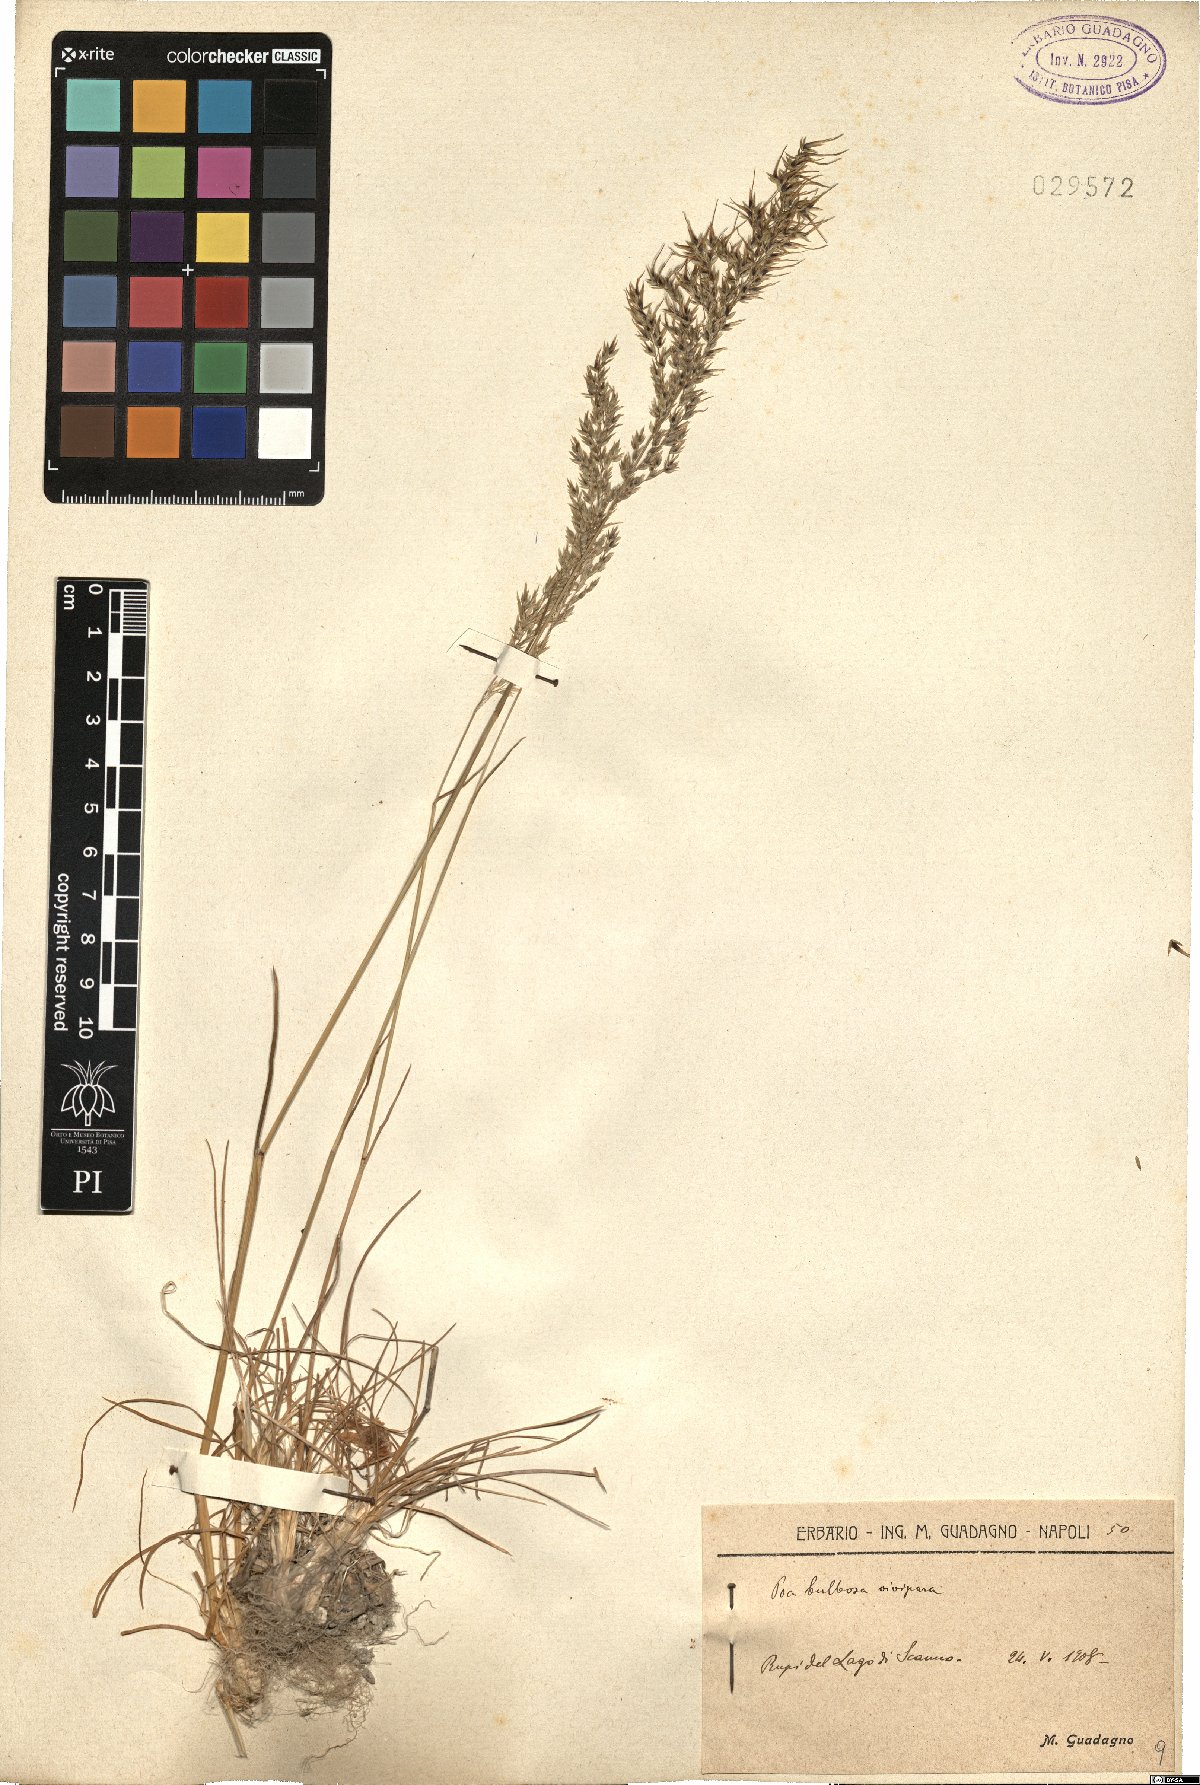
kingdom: Plantae
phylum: Tracheophyta
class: Liliopsida
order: Poales
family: Poaceae
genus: Poa
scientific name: Poa bulbosa
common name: Bulbous bluegrass
